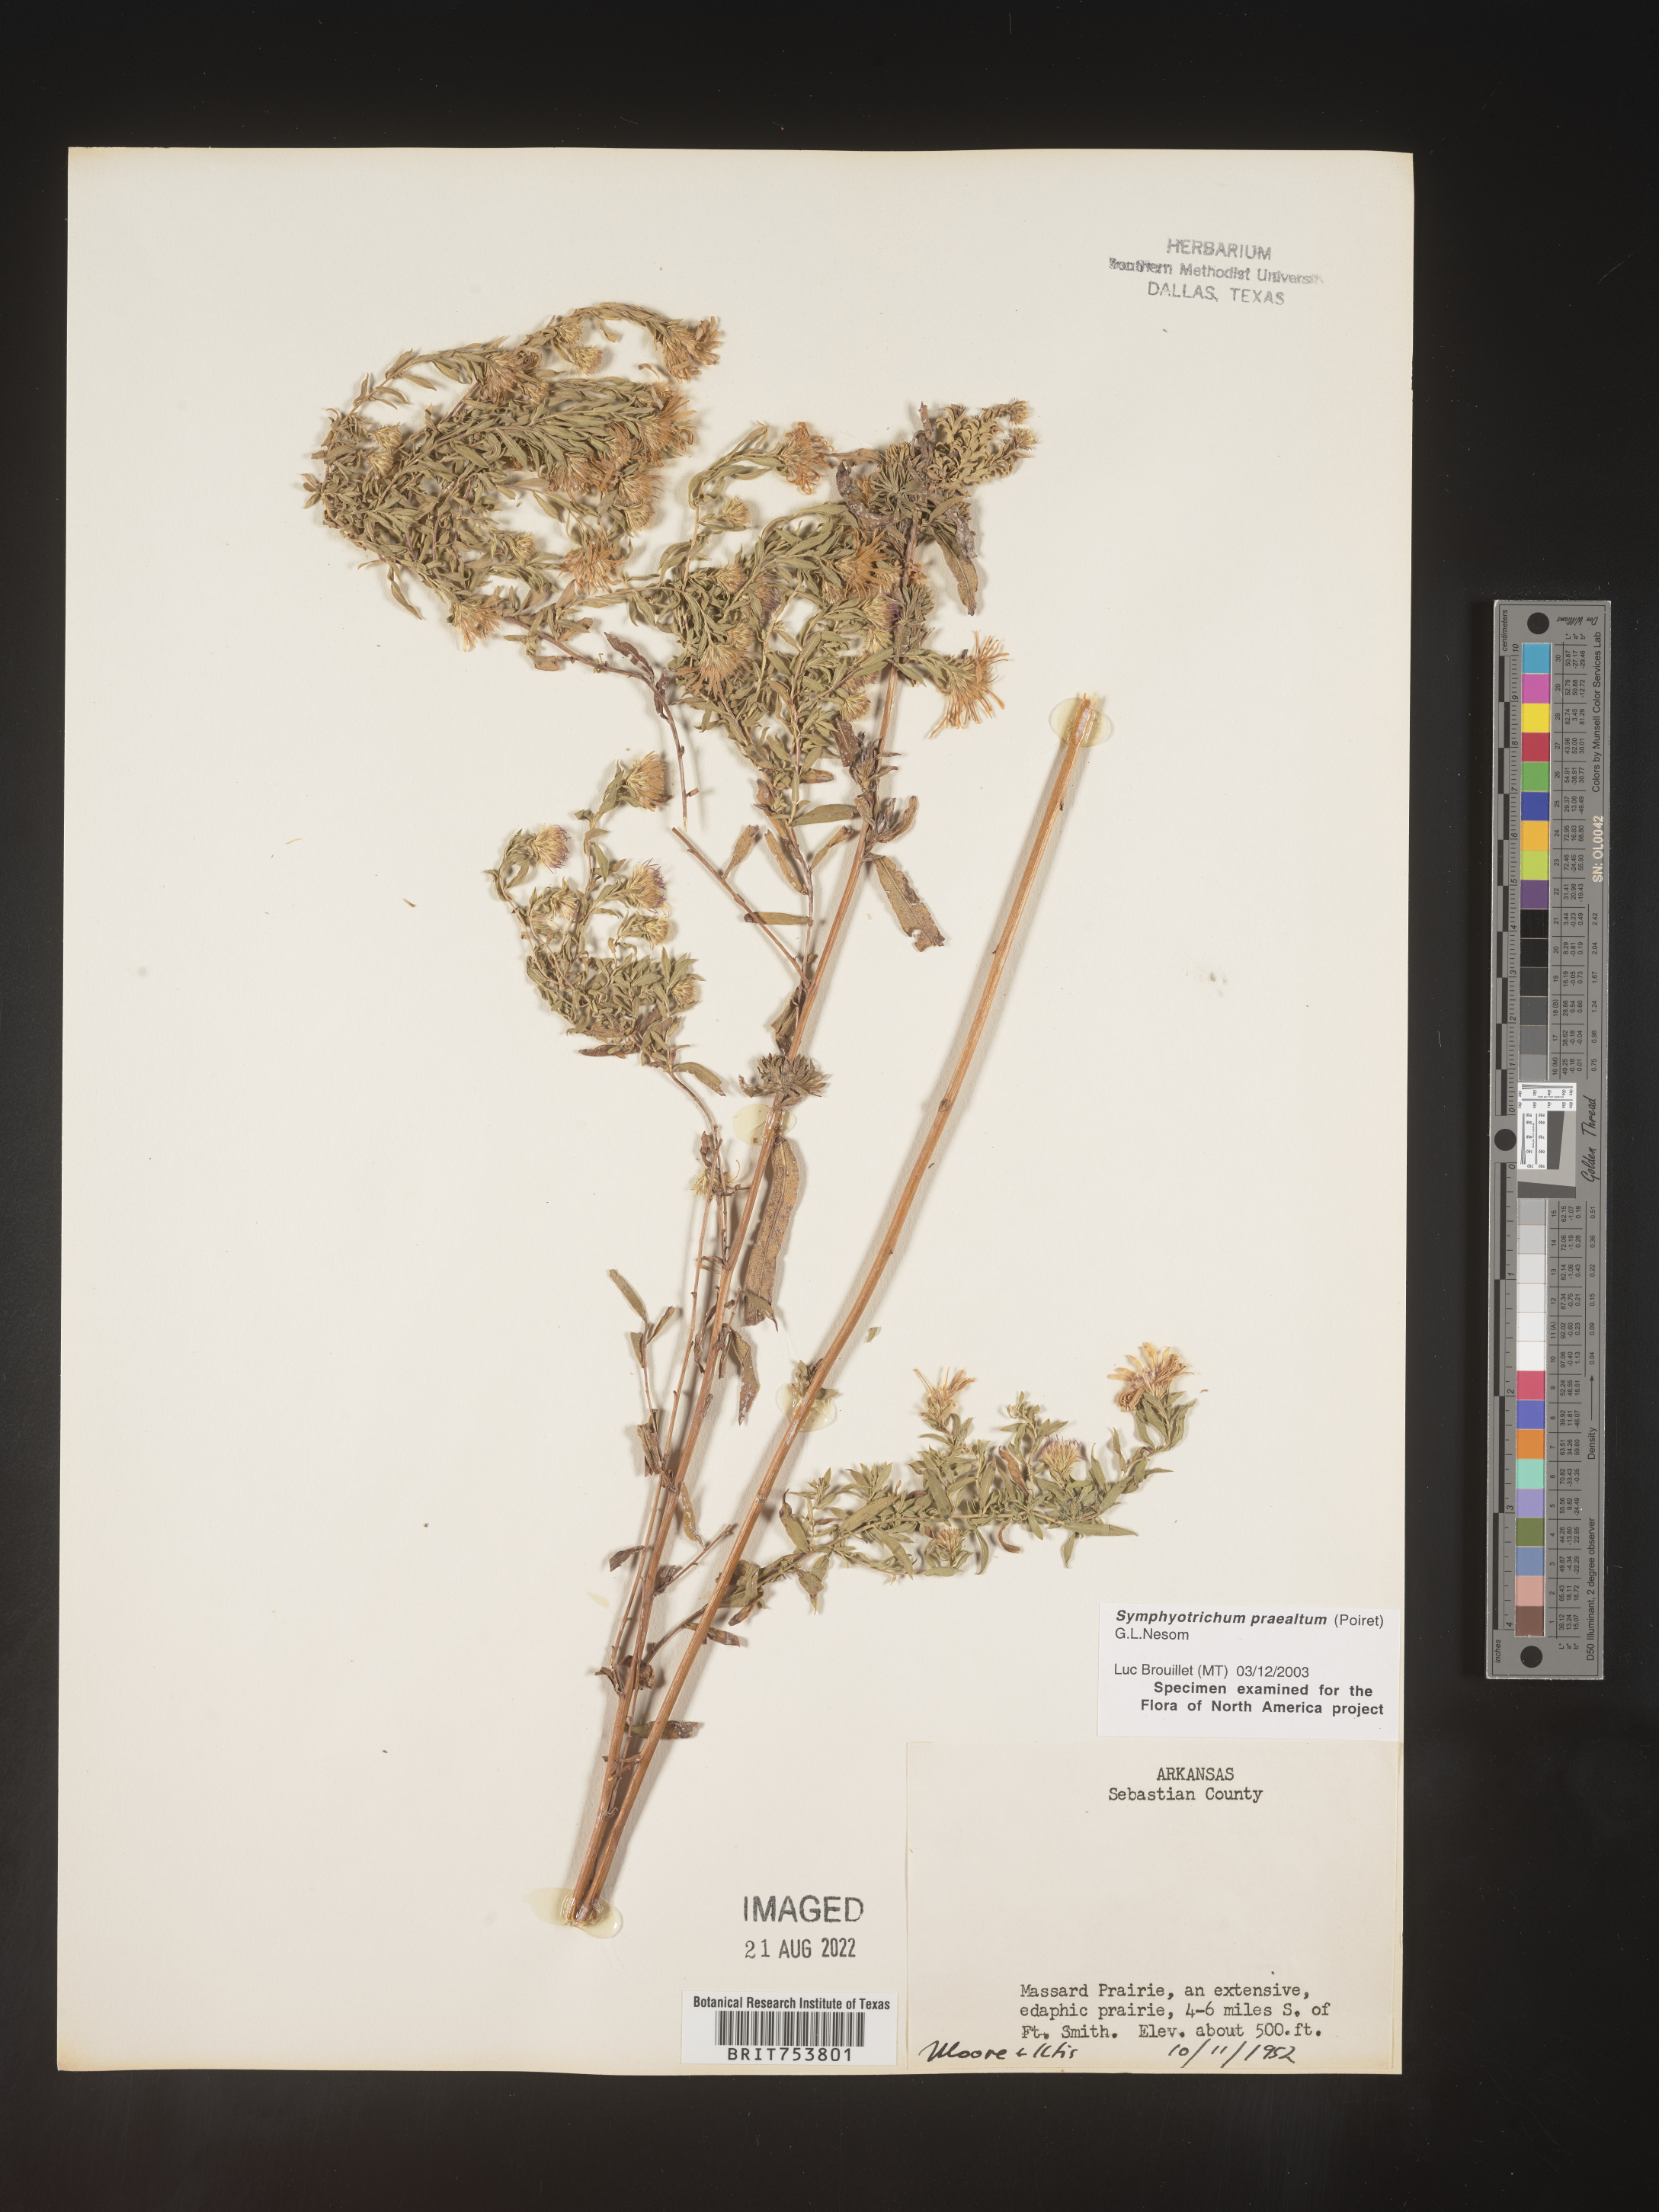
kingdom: Plantae
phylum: Tracheophyta
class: Magnoliopsida
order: Asterales
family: Asteraceae
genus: Symphyotrichum
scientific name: Symphyotrichum praealtum
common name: Willow aster
